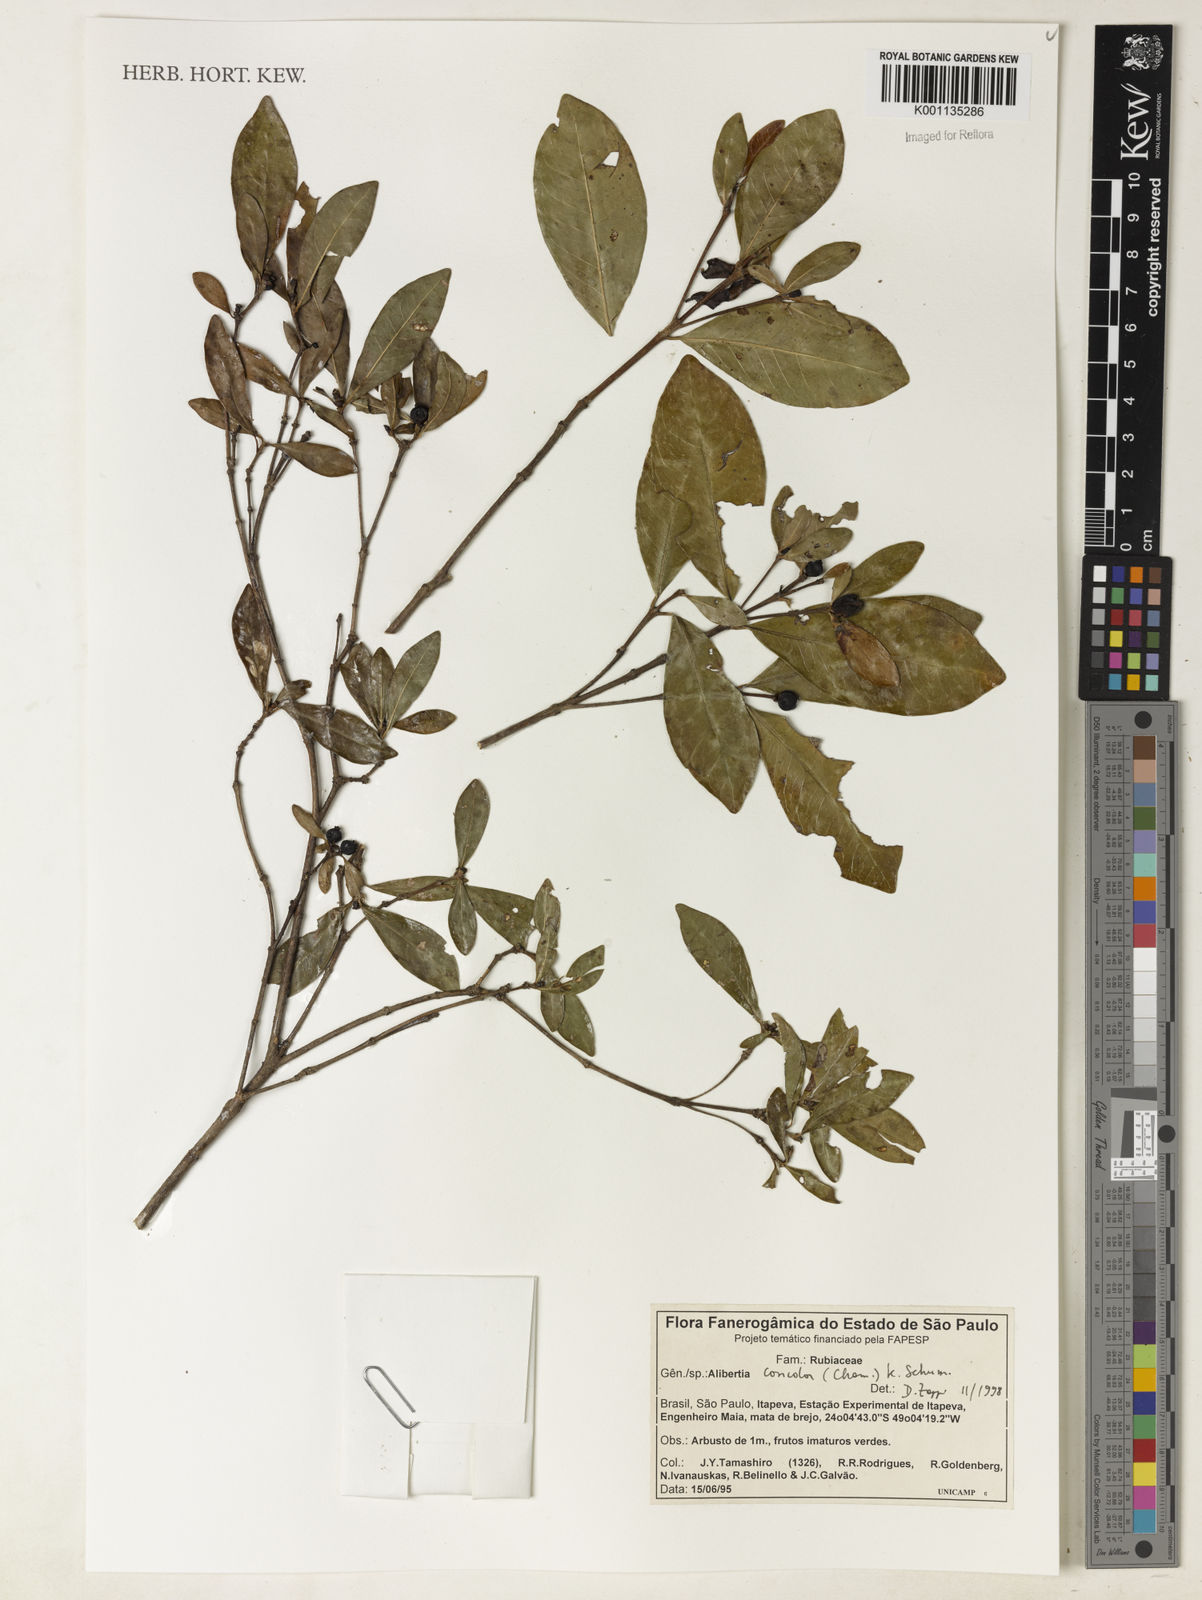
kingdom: Plantae
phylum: Tracheophyta
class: Magnoliopsida
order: Gentianales
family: Rubiaceae
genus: Cordiera
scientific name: Cordiera concolor
